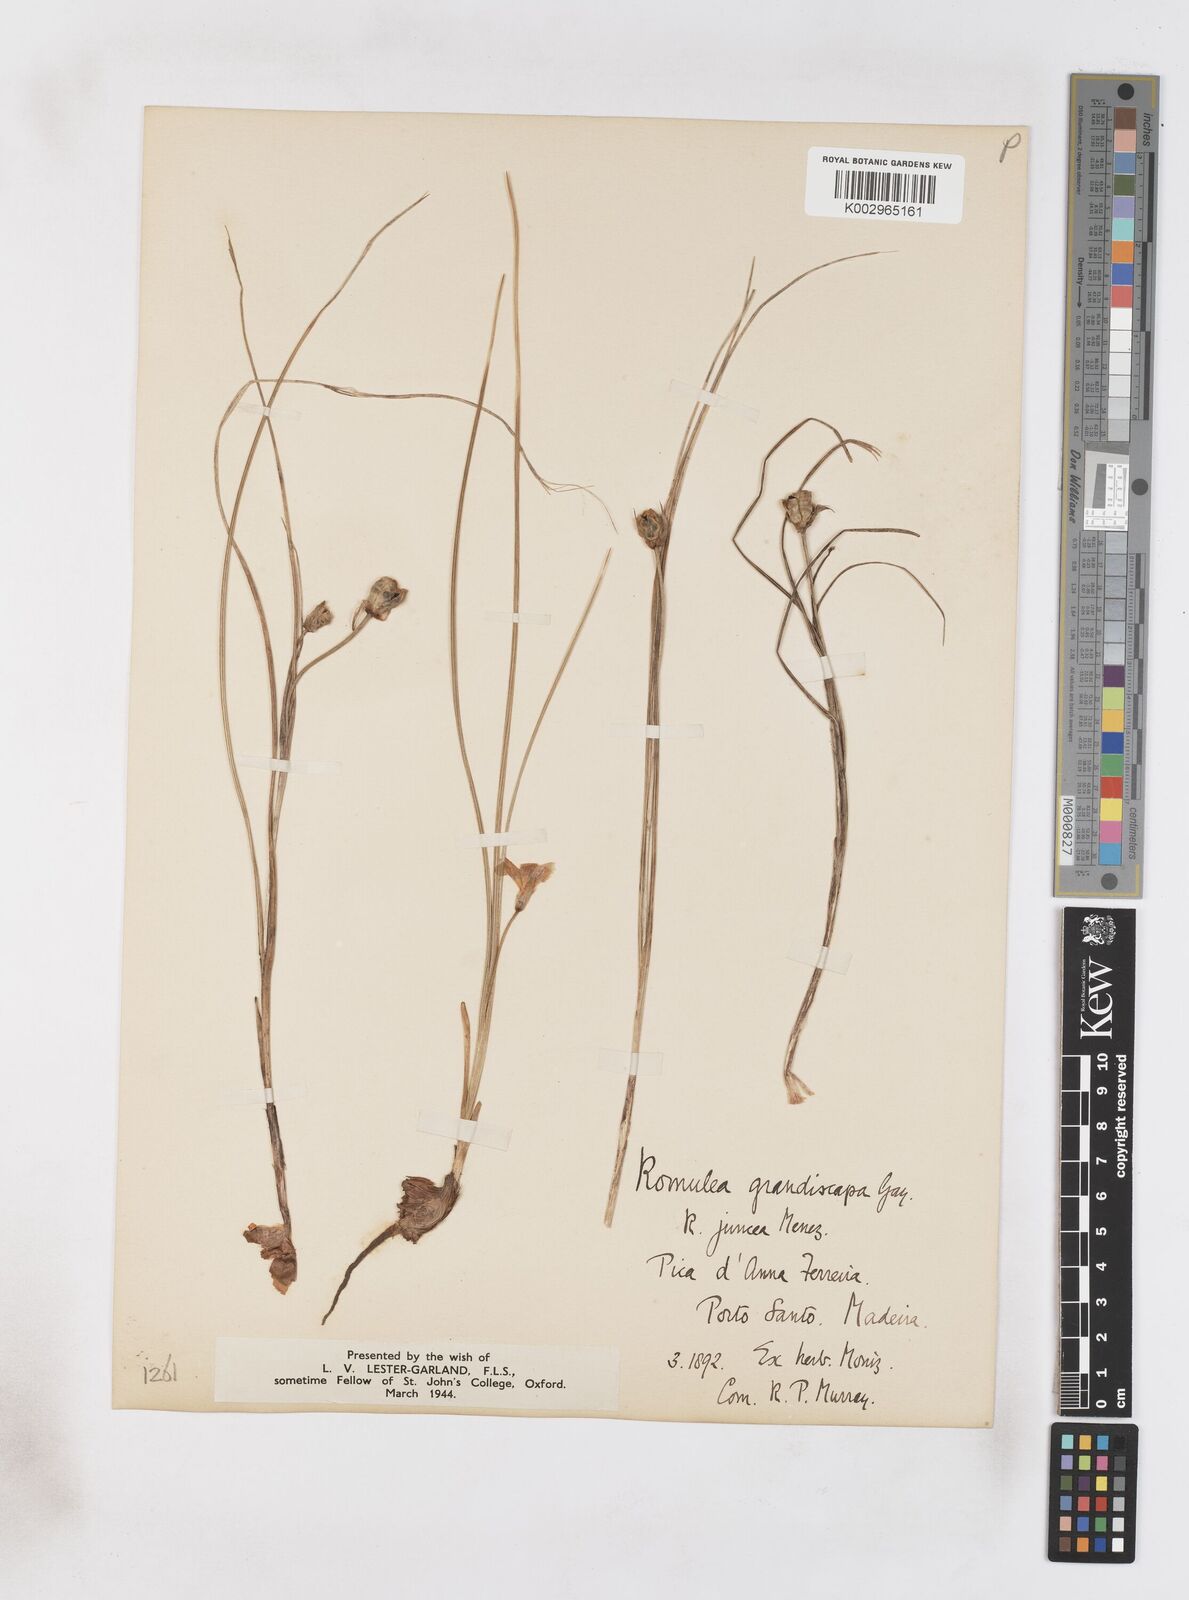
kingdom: Plantae
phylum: Tracheophyta
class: Liliopsida
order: Asparagales
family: Iridaceae
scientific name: Iridaceae
